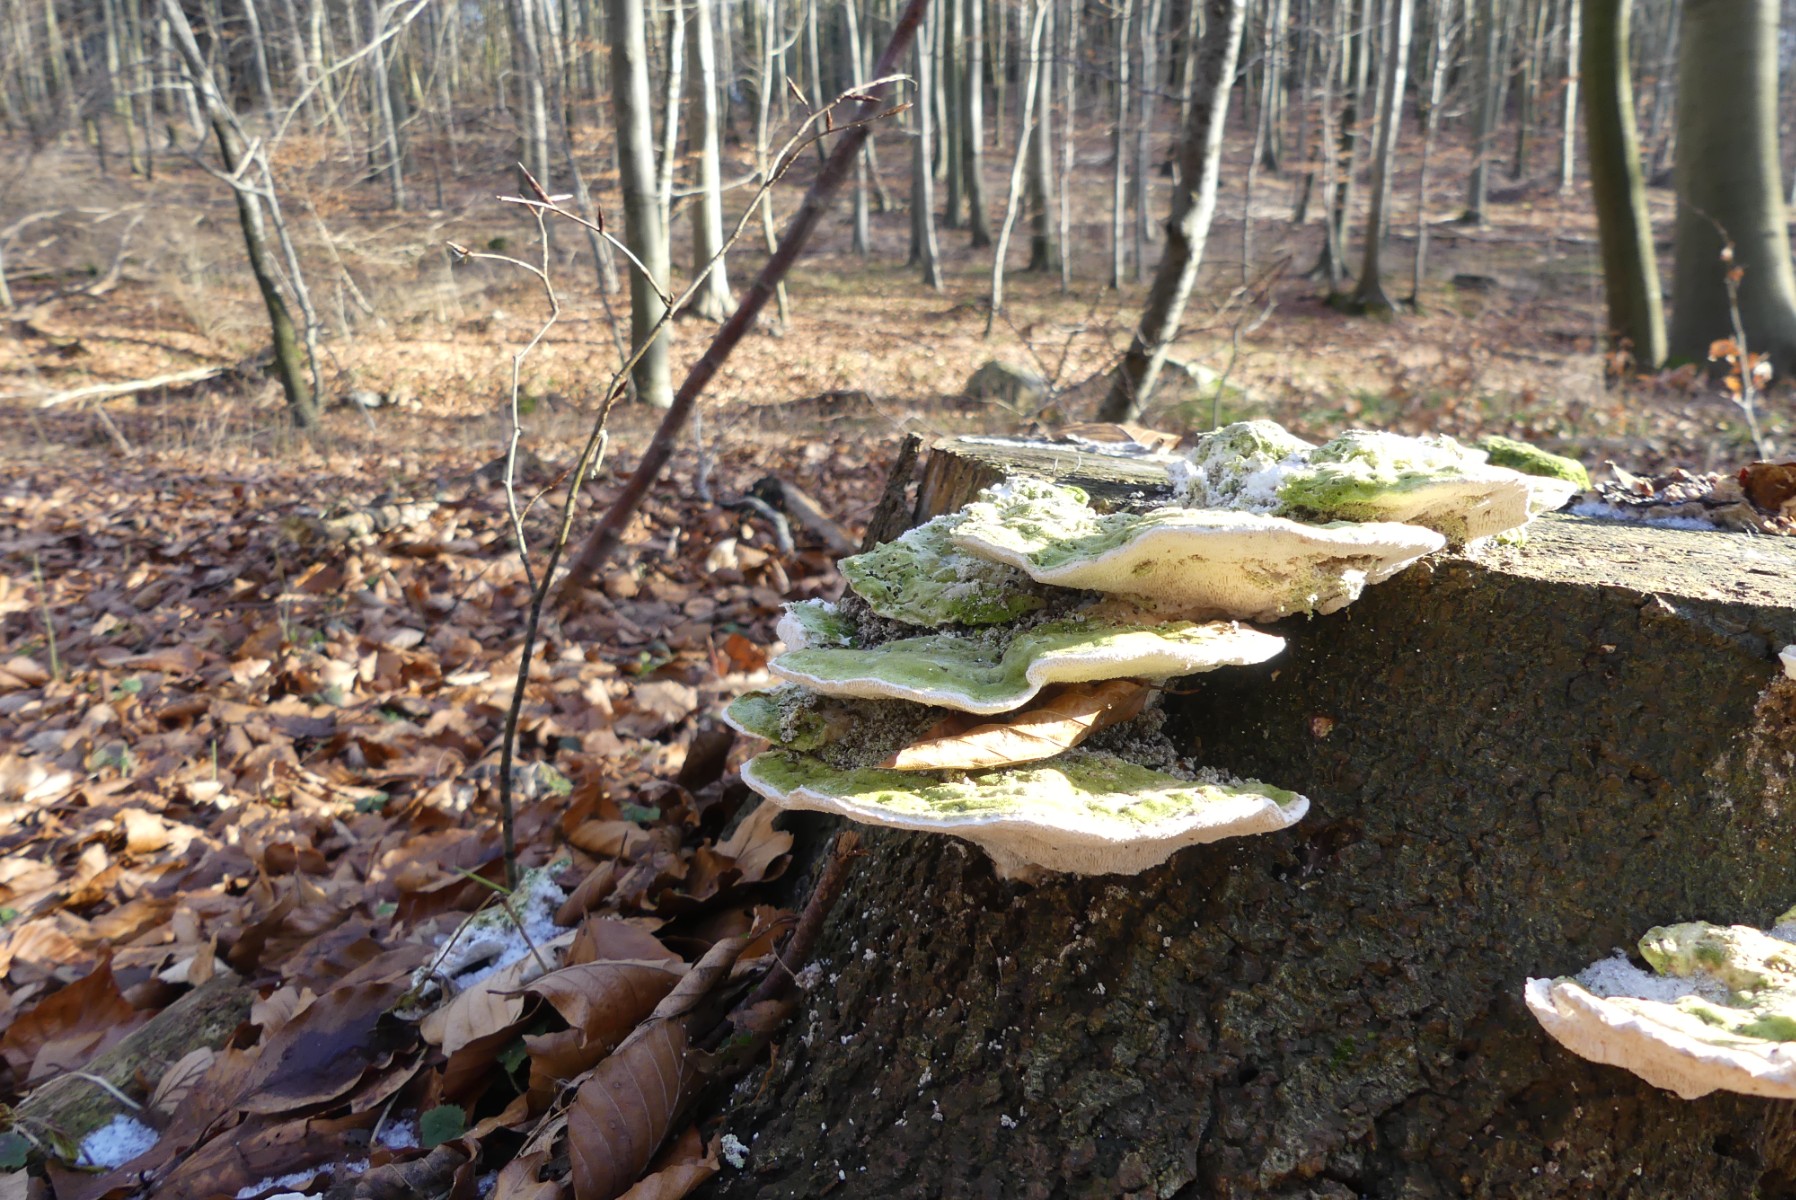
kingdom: Fungi
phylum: Basidiomycota
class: Agaricomycetes
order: Polyporales
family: Polyporaceae
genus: Trametes
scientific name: Trametes gibbosa
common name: puklet læderporesvamp
